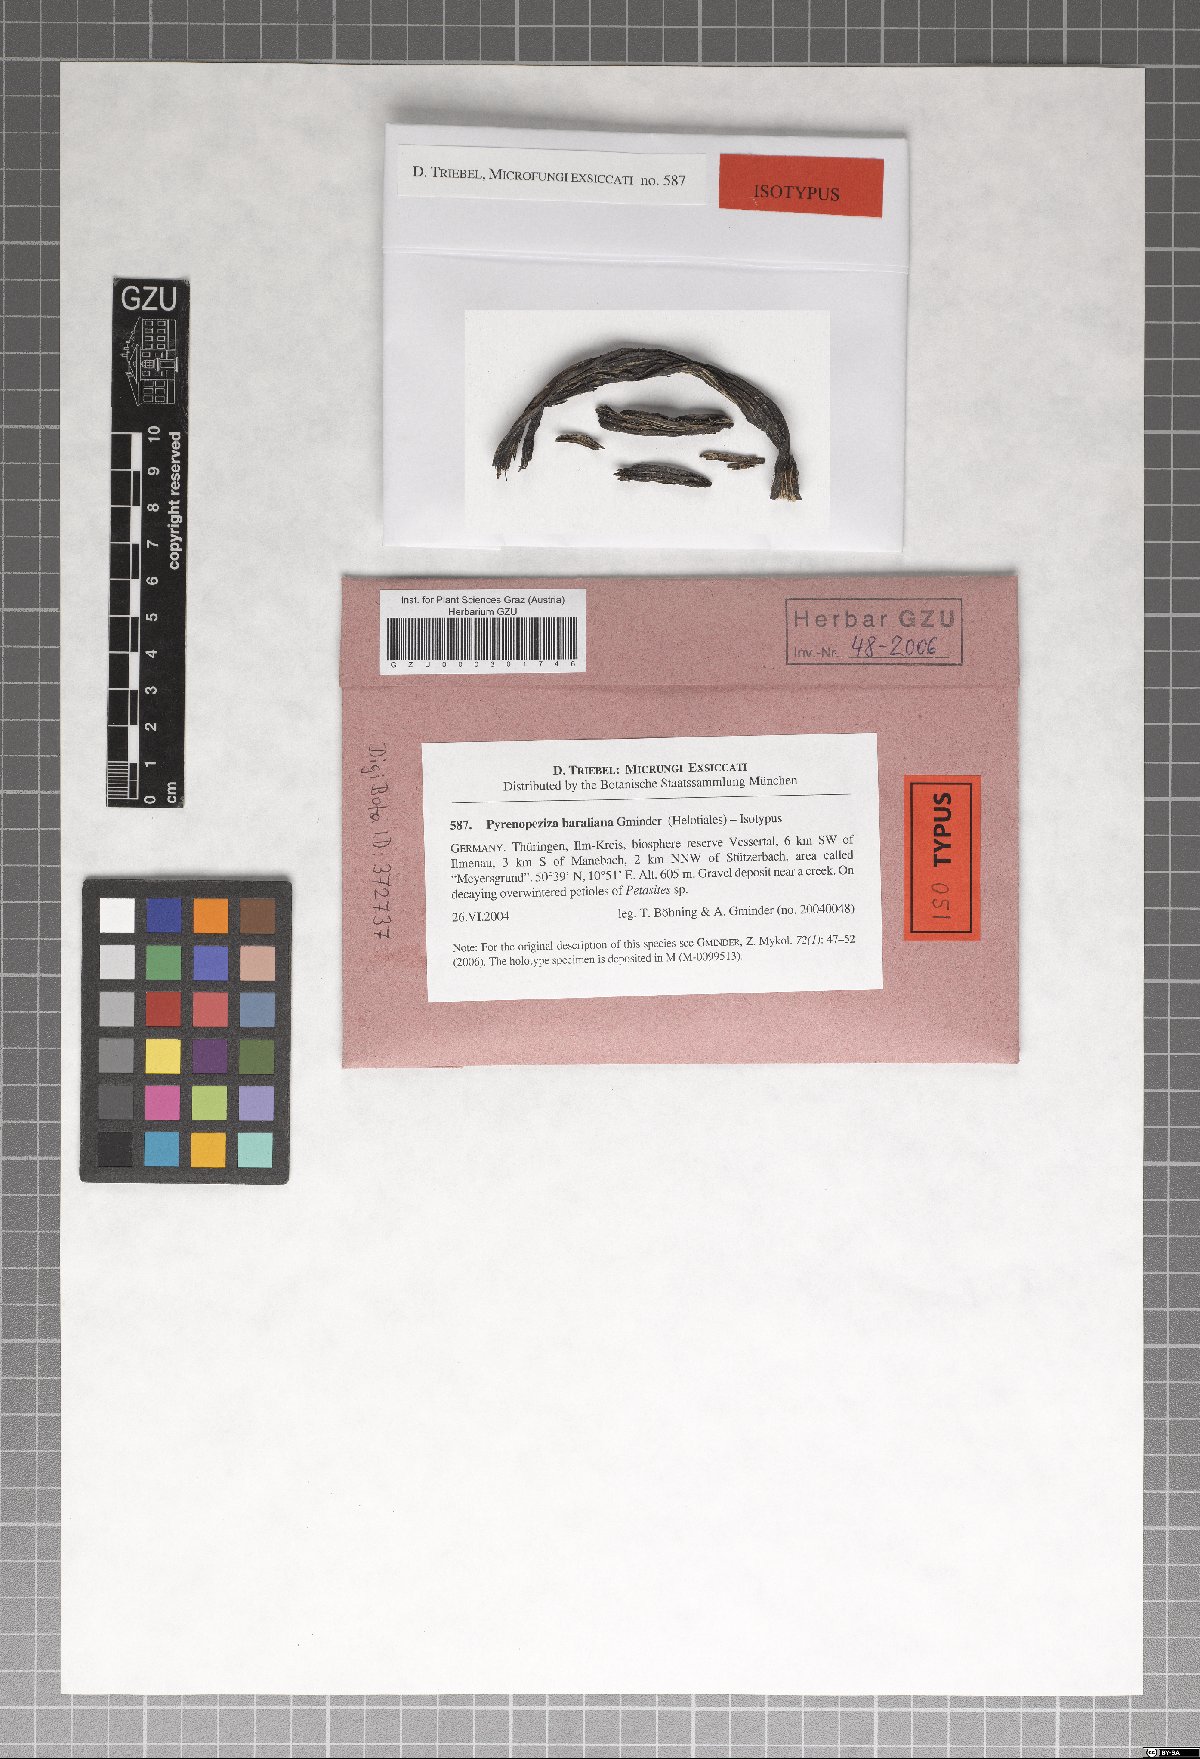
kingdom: Fungi
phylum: Ascomycota
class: Leotiomycetes
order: Helotiales
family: Ploettnerulaceae
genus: Pyrenopeziza
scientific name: Pyrenopeziza baraliana
